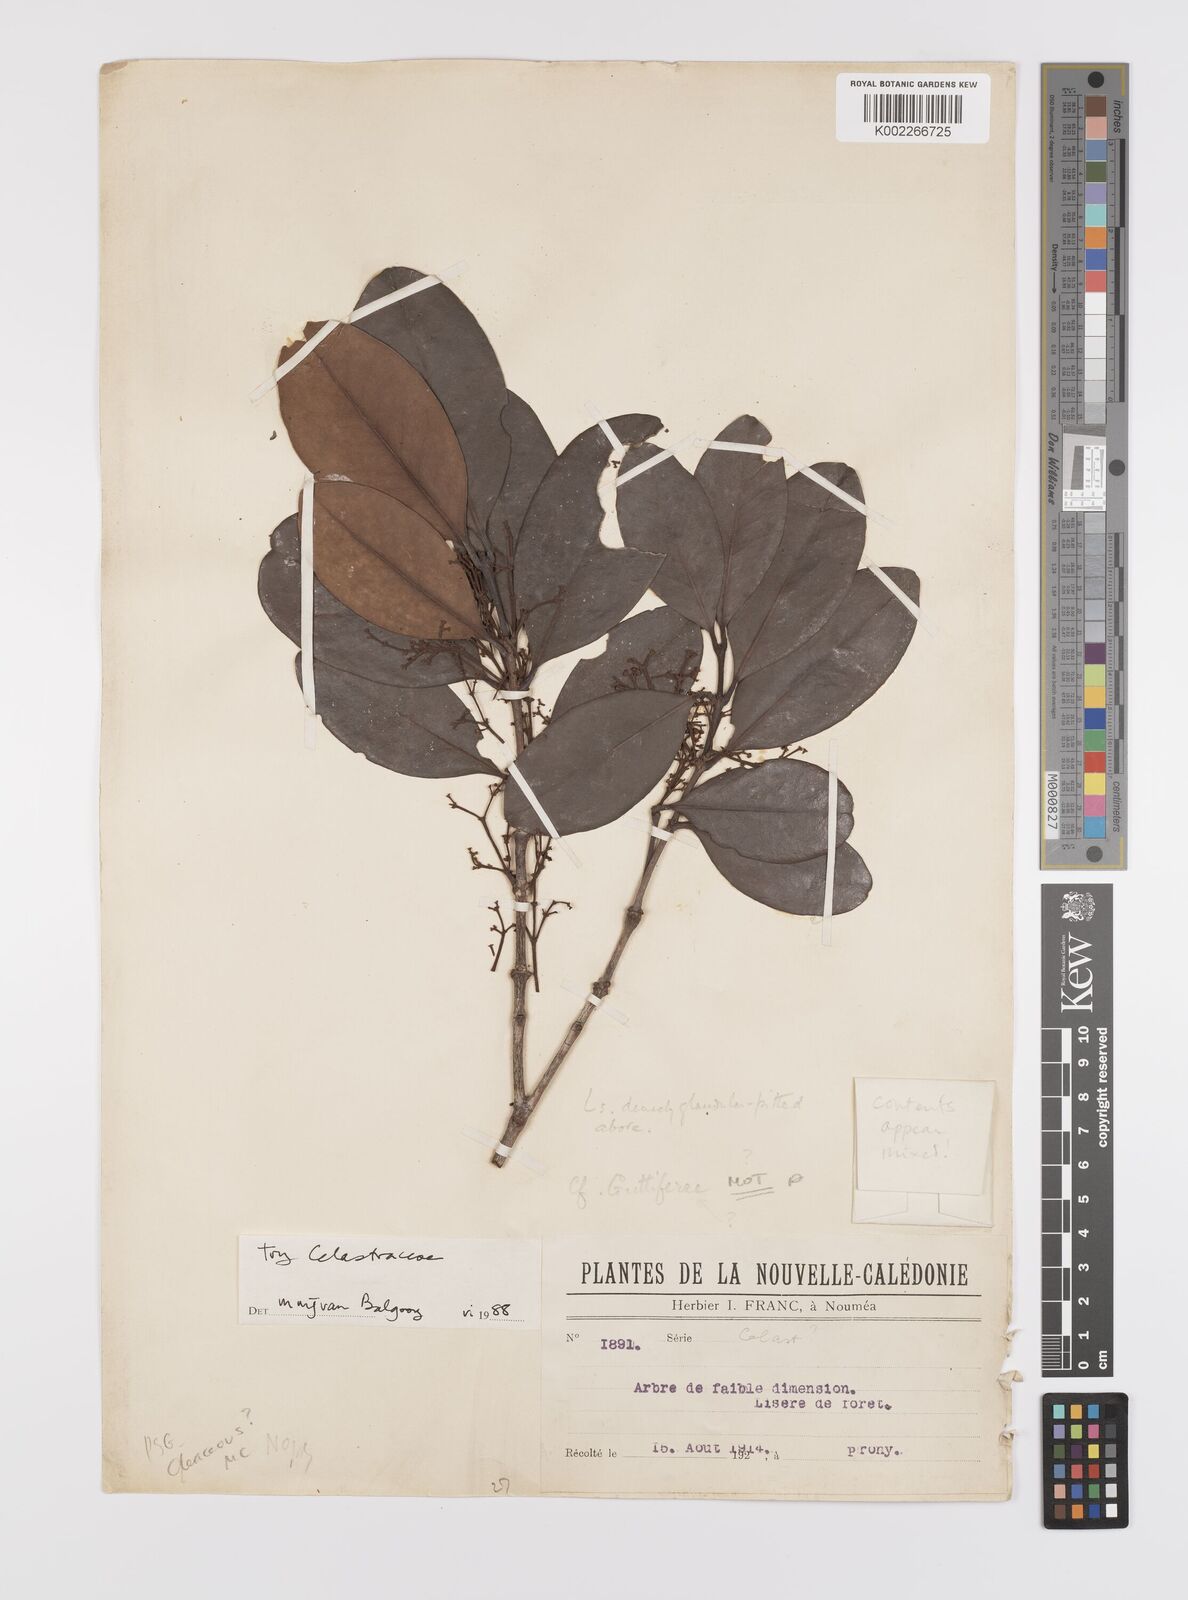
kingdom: Plantae
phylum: Tracheophyta
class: Magnoliopsida
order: Celastrales
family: Celastraceae
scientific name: Celastraceae
